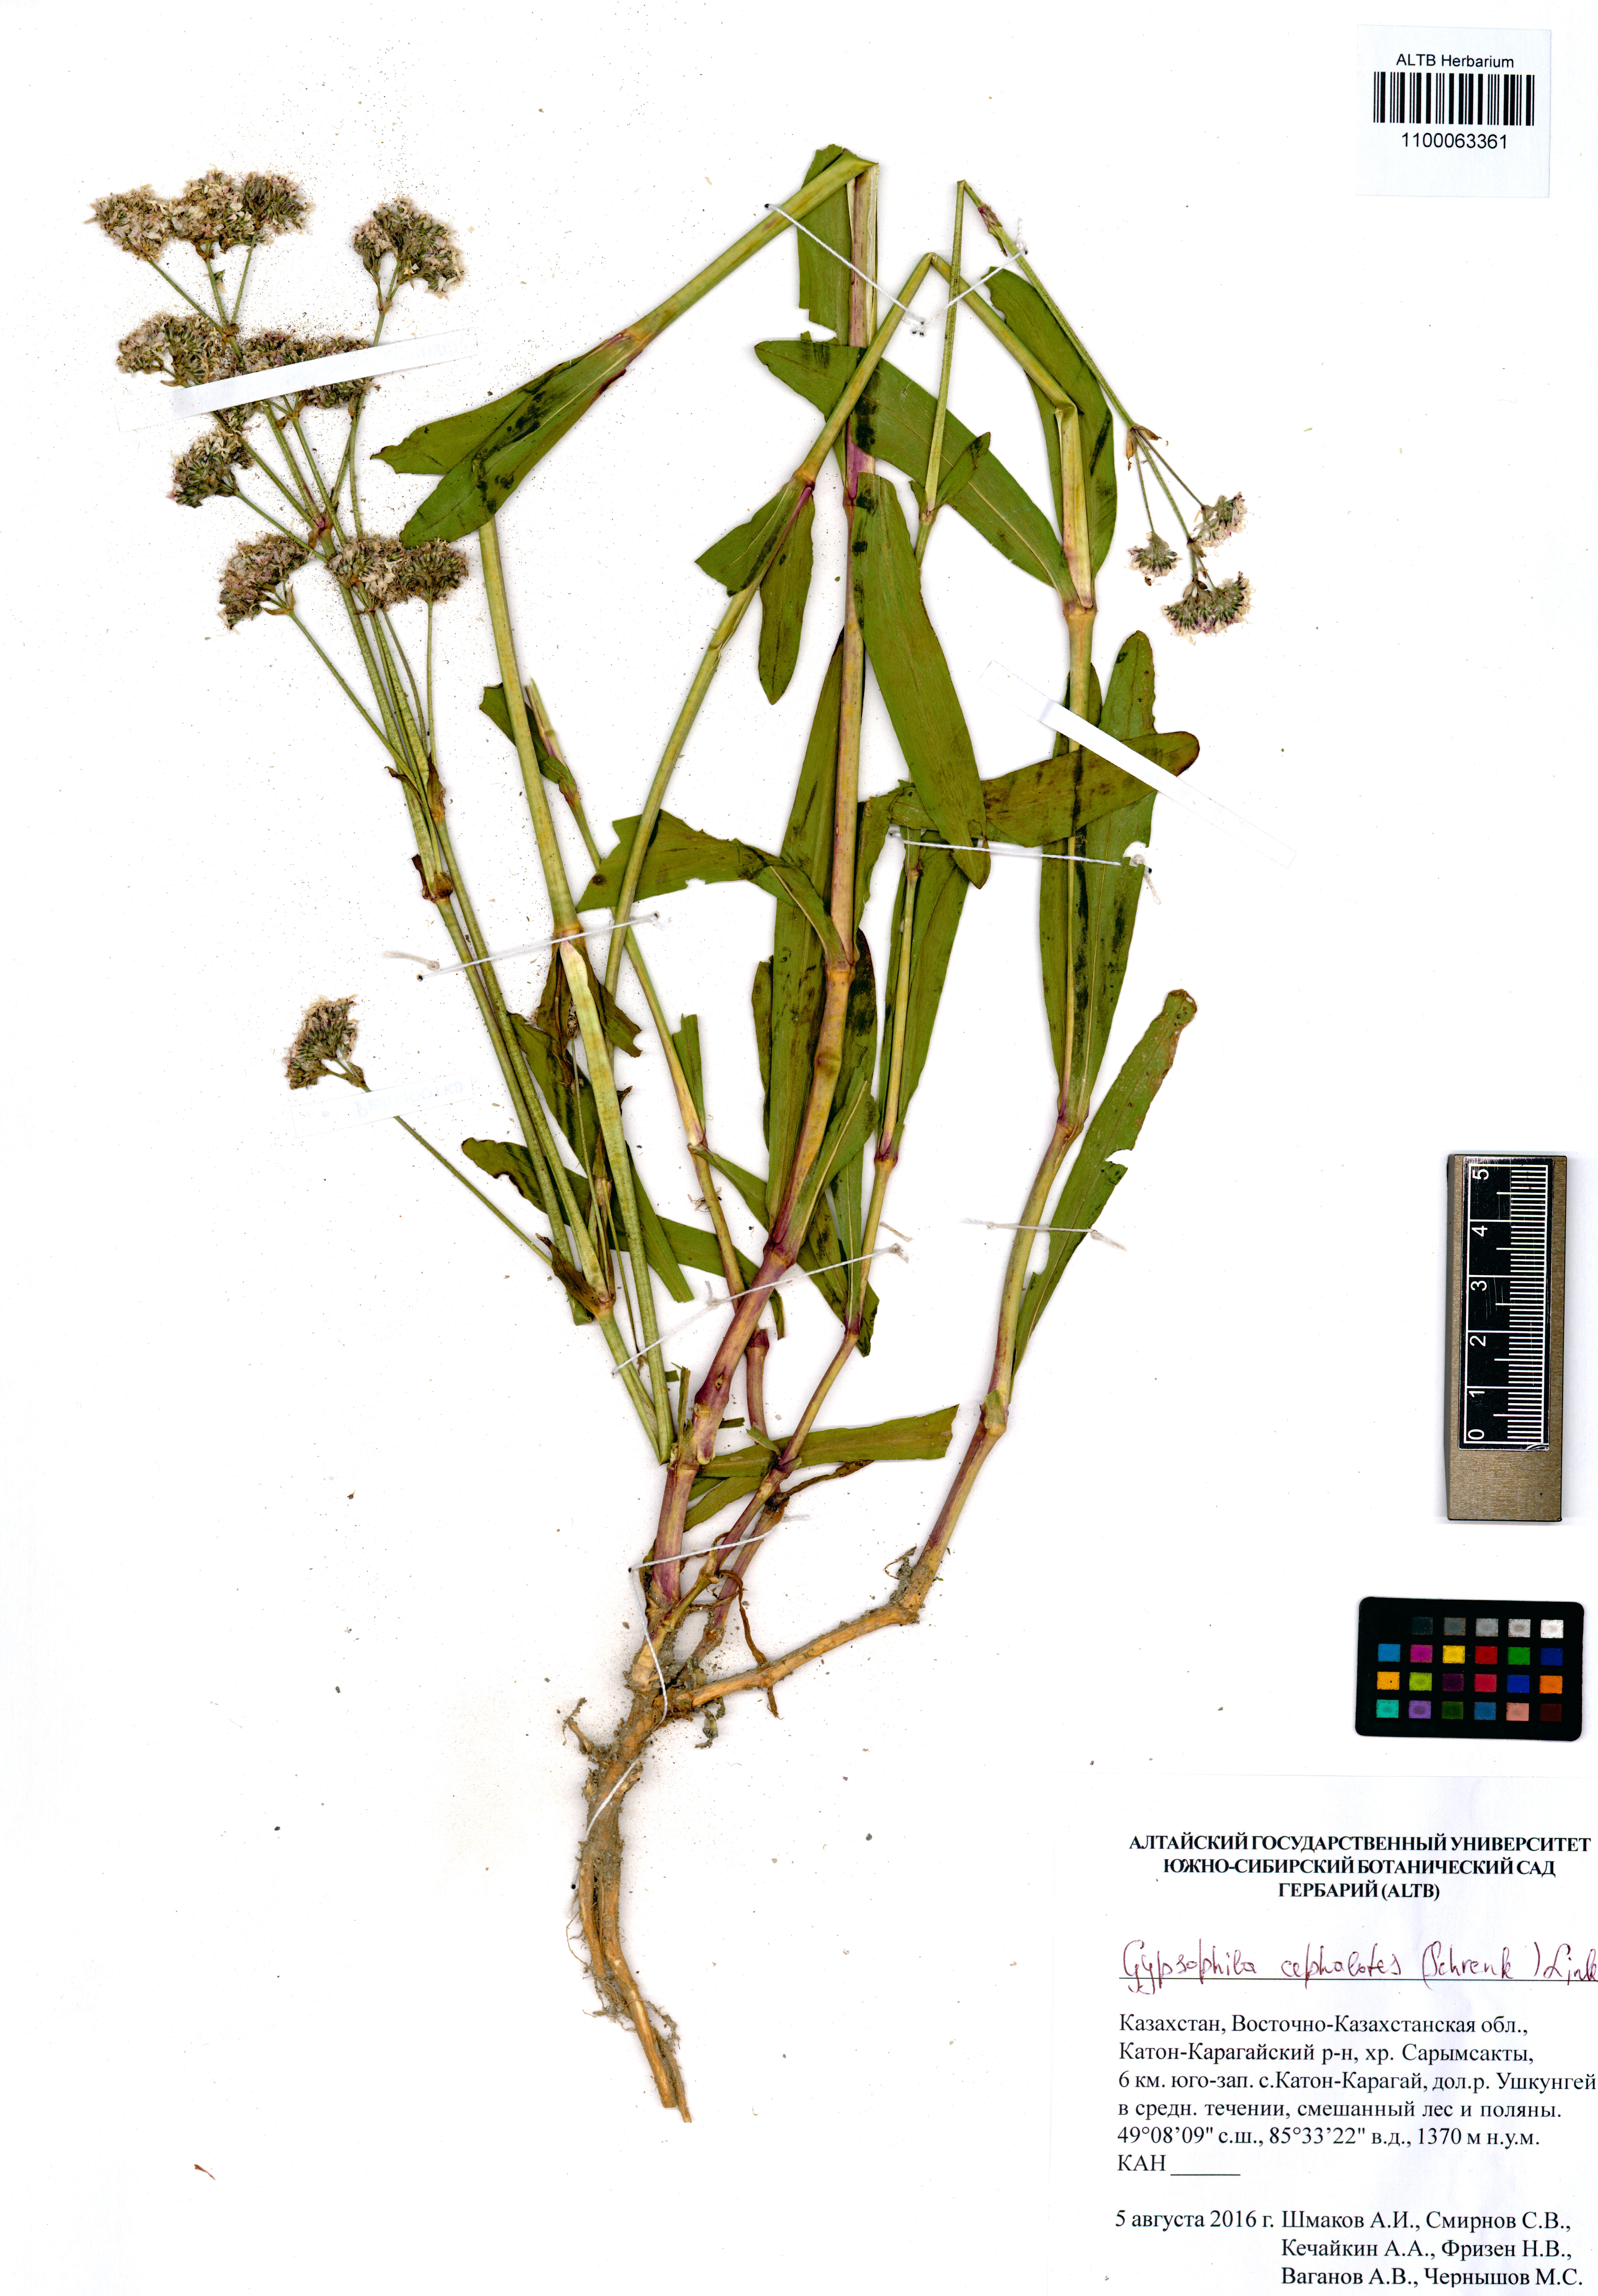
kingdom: Plantae
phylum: Tracheophyta
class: Magnoliopsida
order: Caryophyllales
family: Caryophyllaceae
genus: Gypsophila
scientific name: Gypsophila cephalotes
